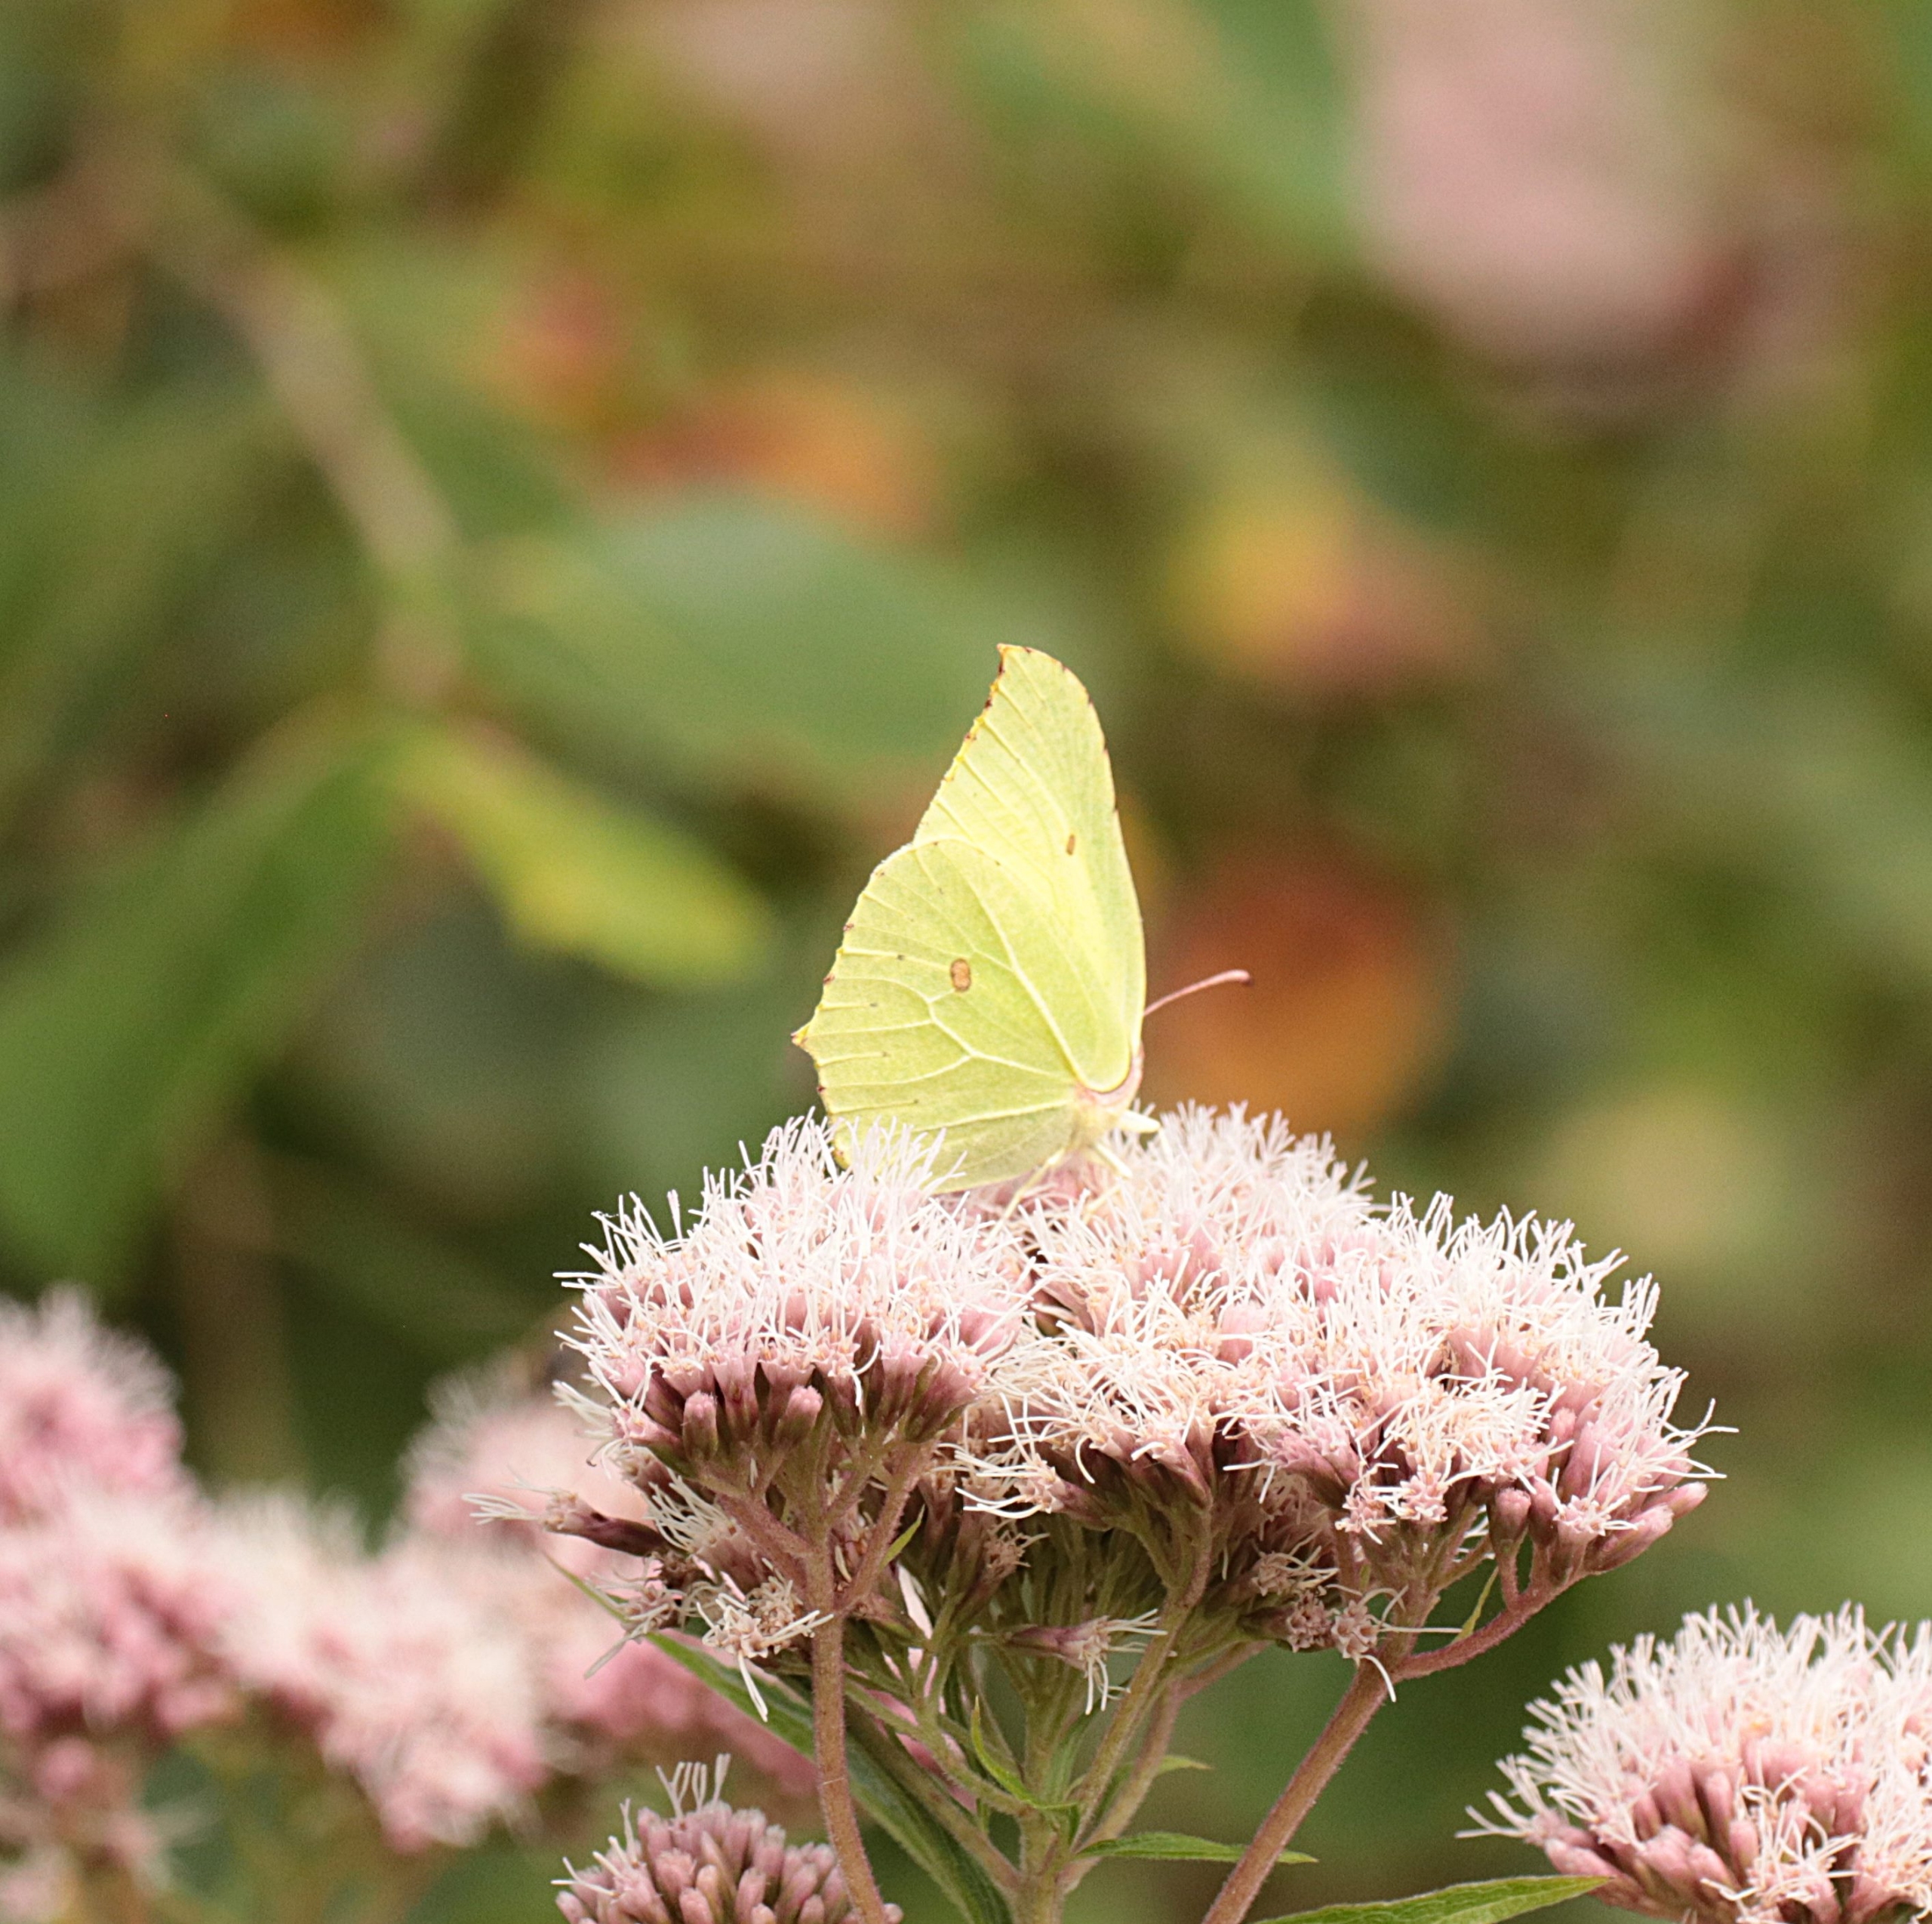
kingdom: Animalia
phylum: Arthropoda
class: Insecta
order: Lepidoptera
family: Pieridae
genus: Gonepteryx
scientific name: Gonepteryx rhamni
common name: Citronsommerfugl
